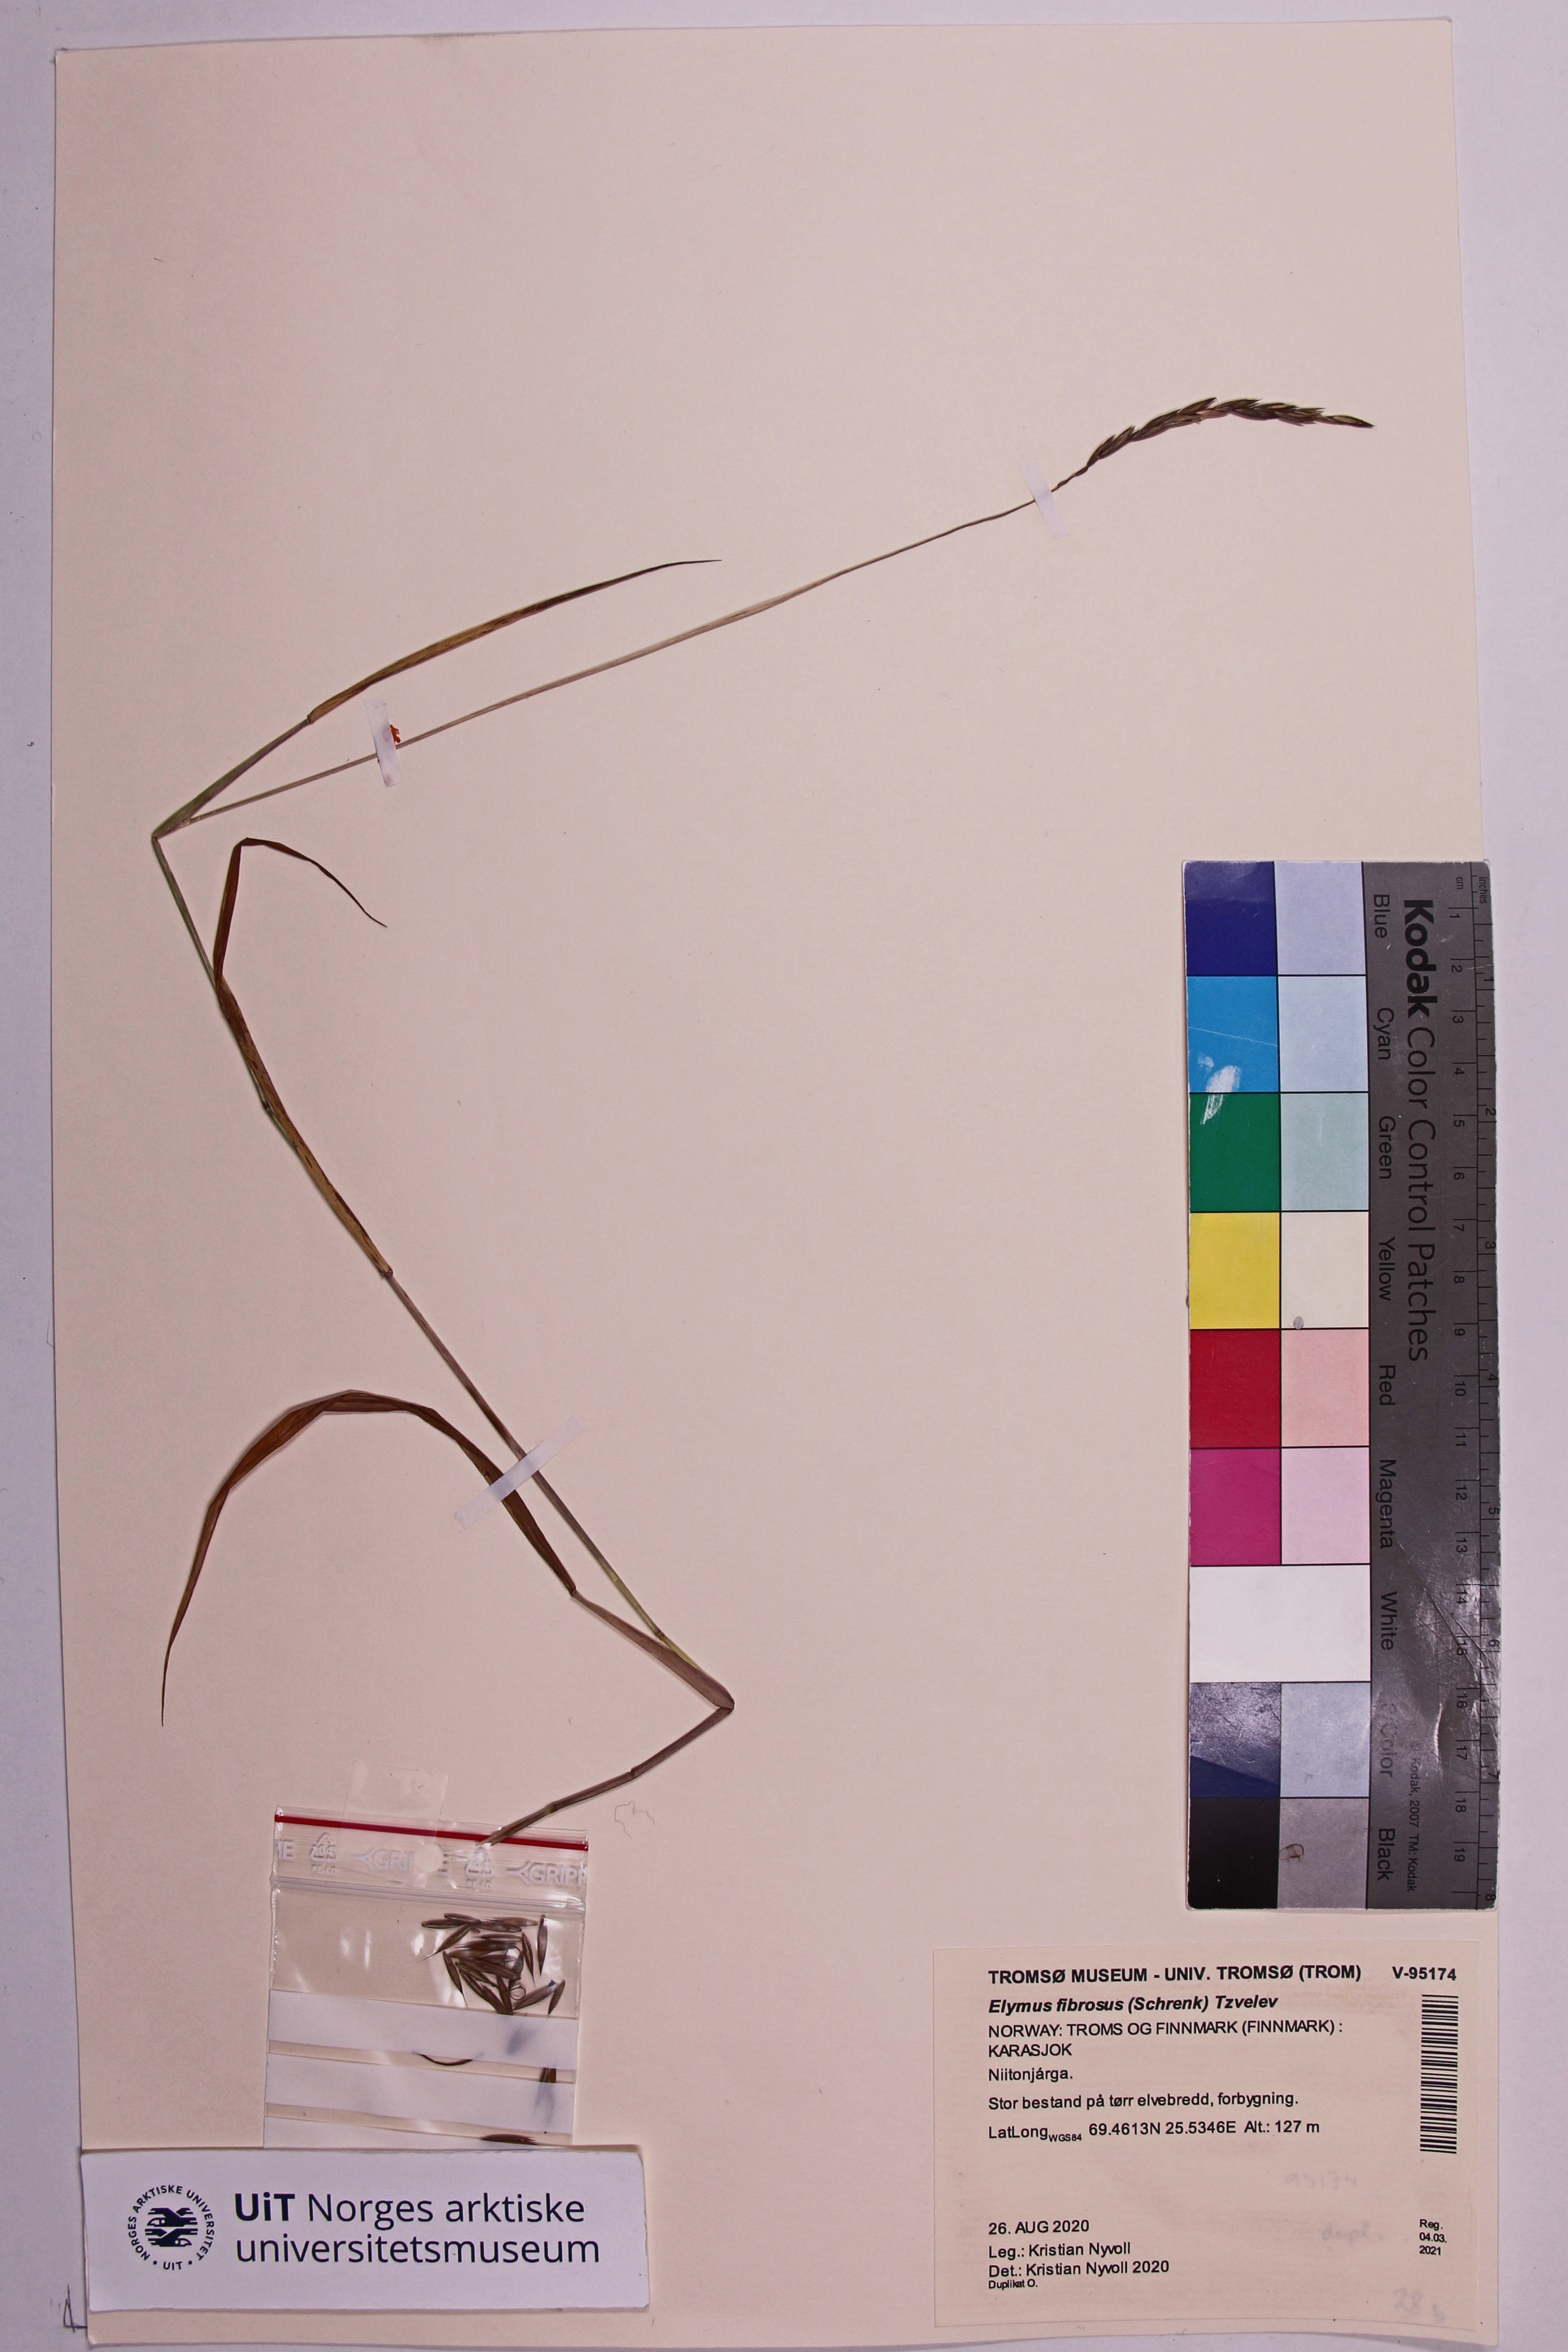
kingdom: Plantae
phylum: Tracheophyta
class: Liliopsida
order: Poales
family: Poaceae
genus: Elymus
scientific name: Elymus fibrosus
